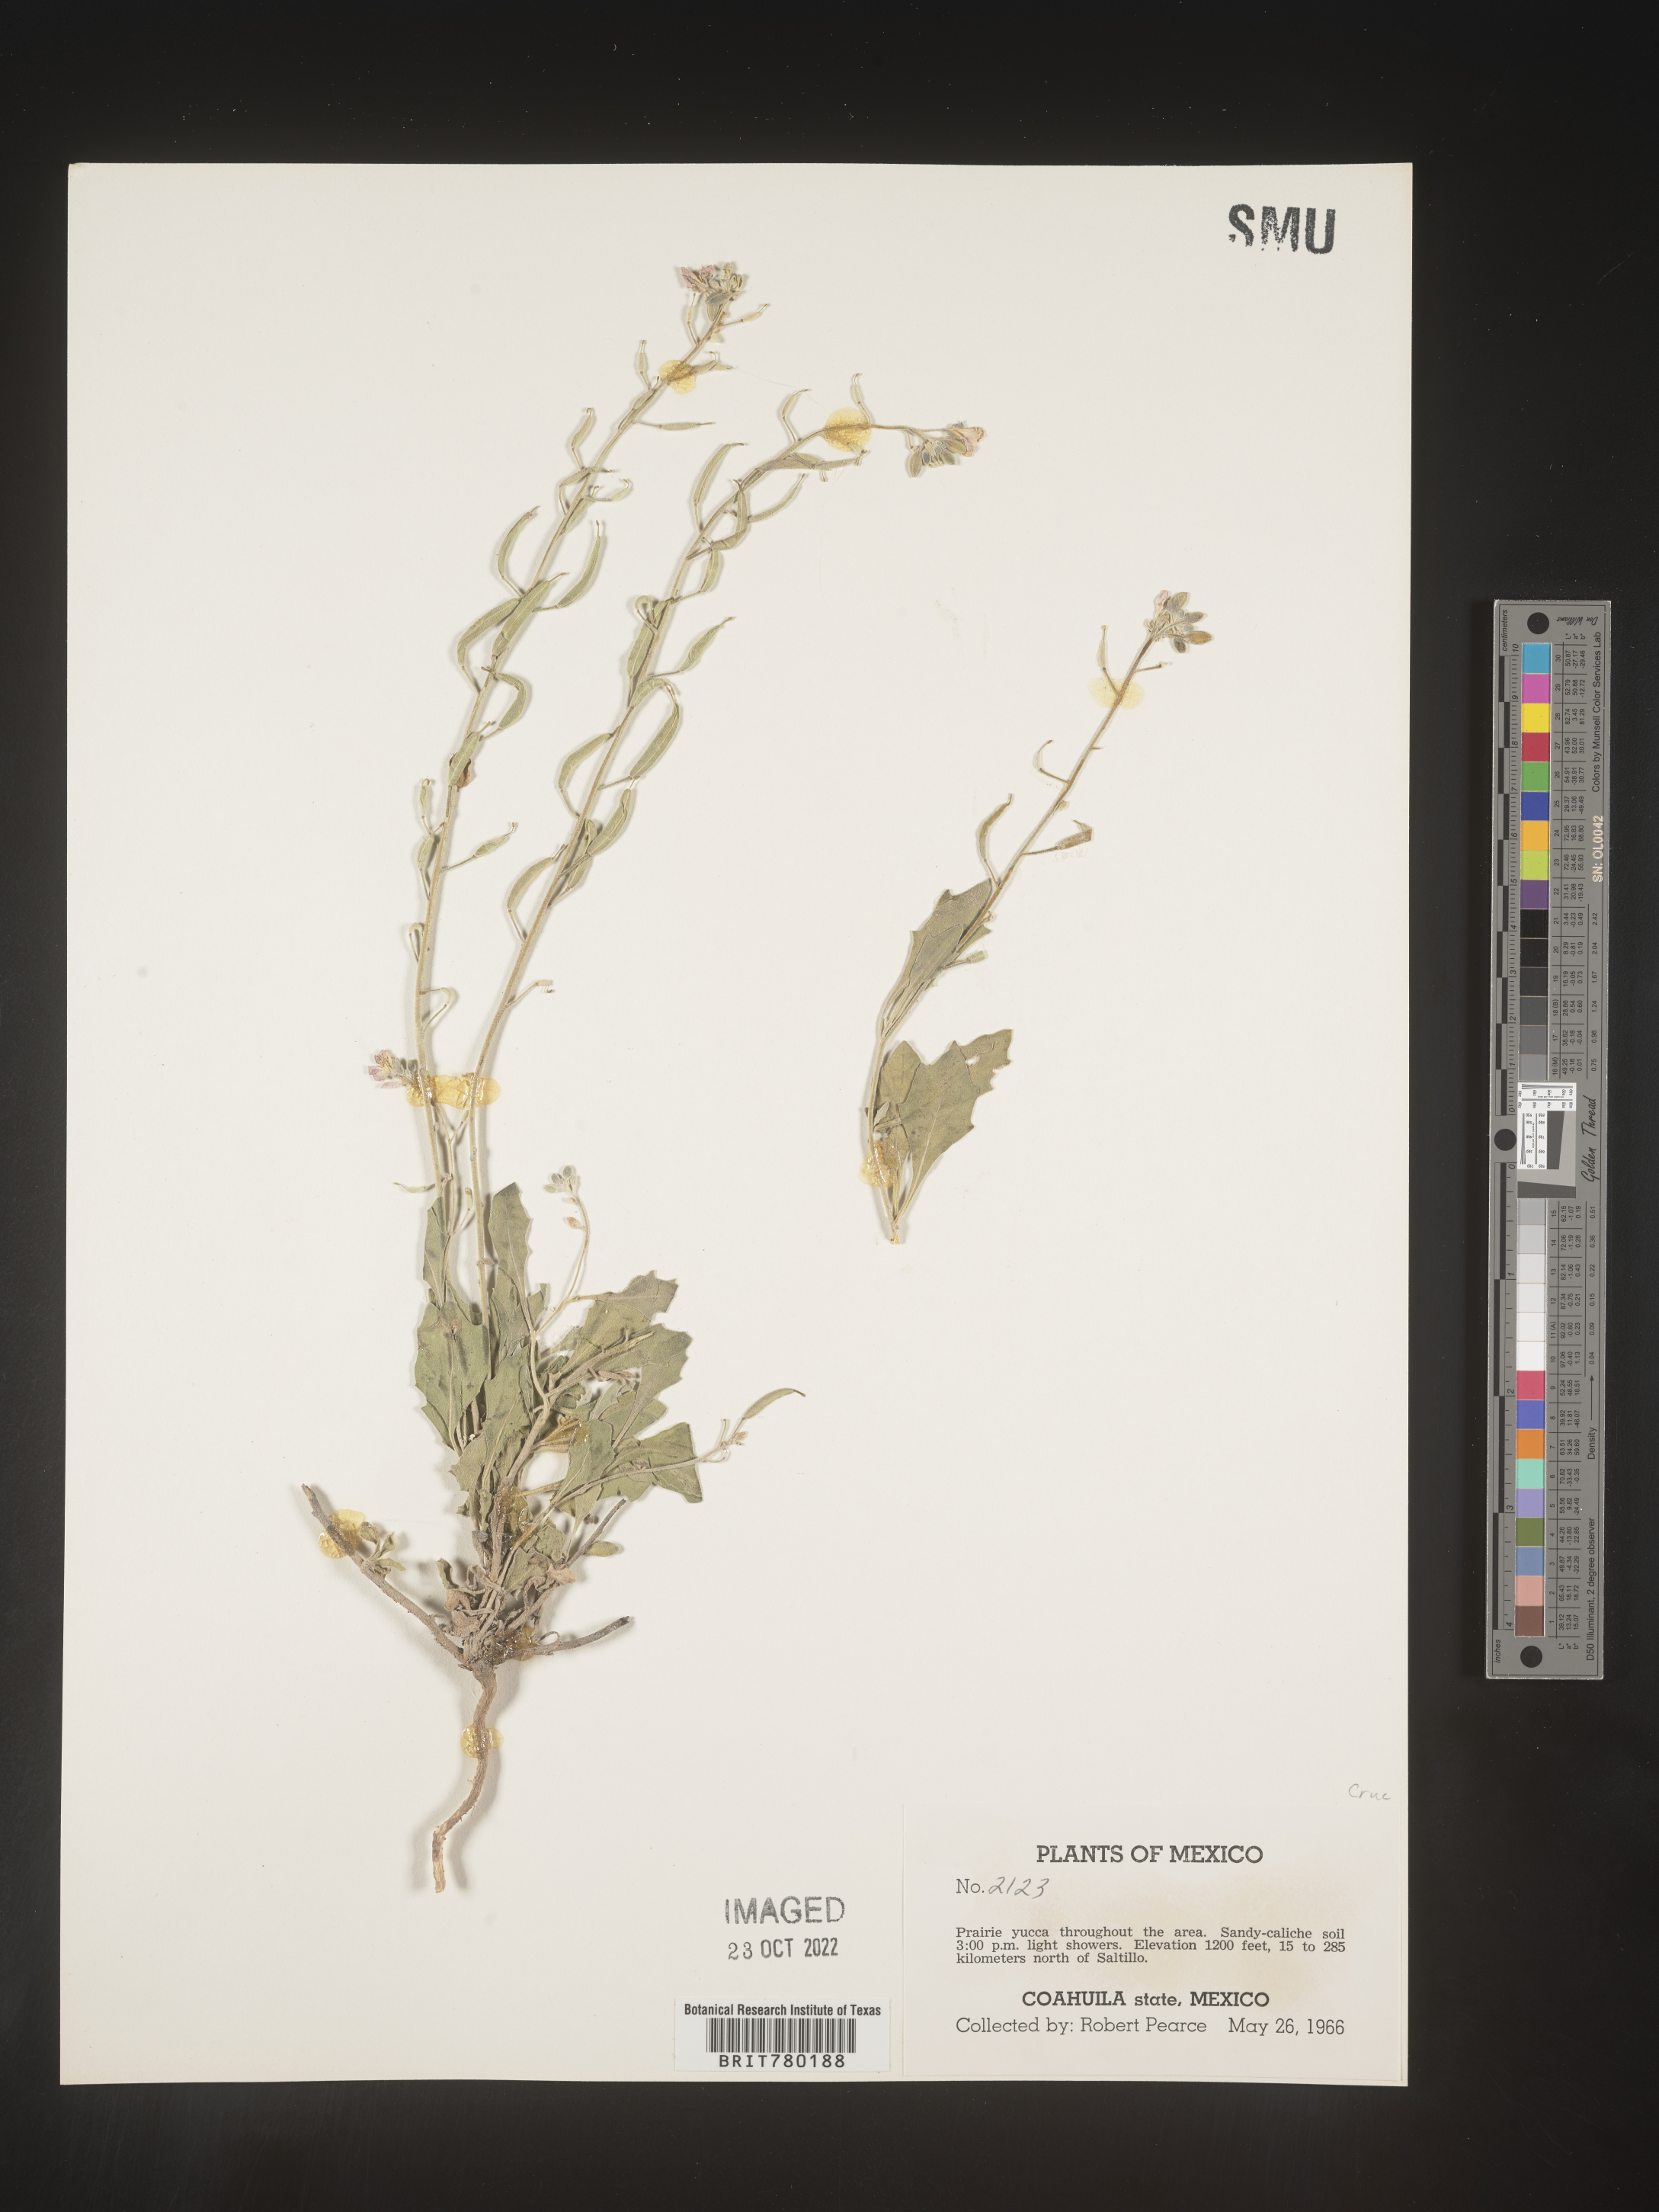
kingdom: Plantae
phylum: Tracheophyta
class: Magnoliopsida
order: Brassicales
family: Brassicaceae
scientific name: Brassicaceae
